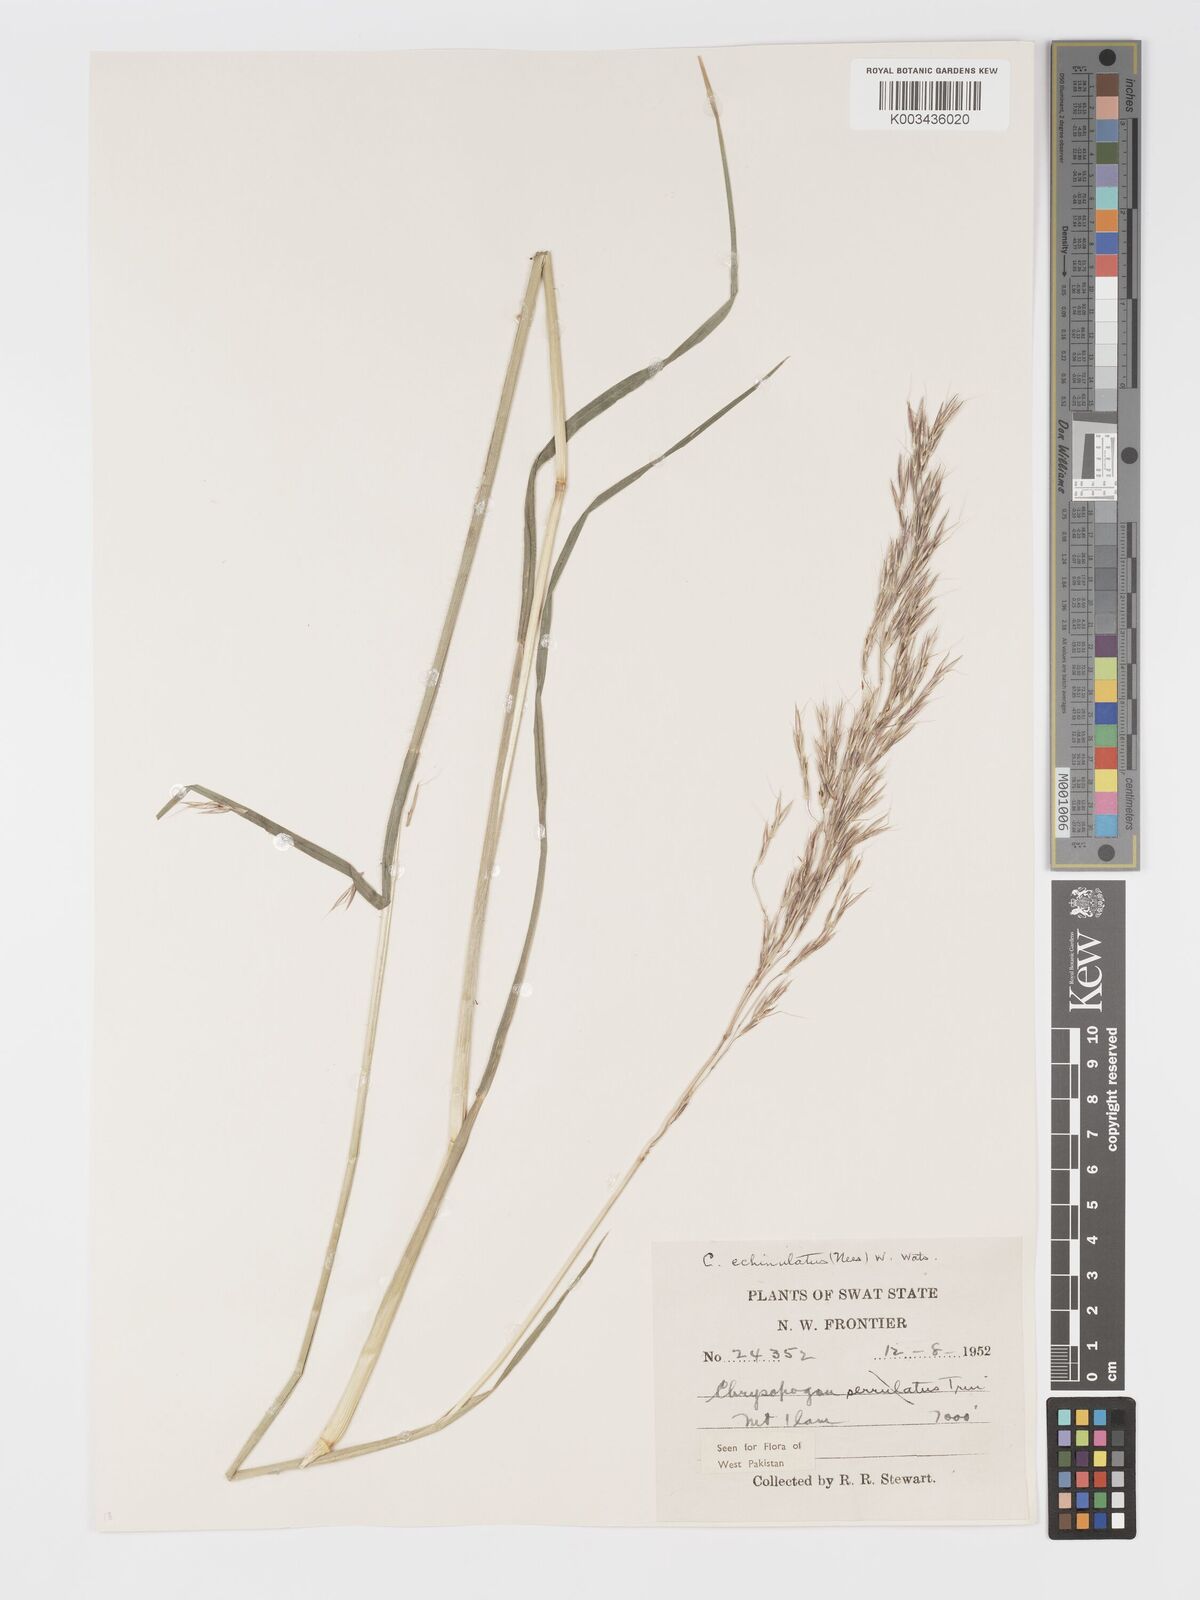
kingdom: Plantae
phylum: Tracheophyta
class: Liliopsida
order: Poales
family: Poaceae
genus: Chrysopogon
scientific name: Chrysopogon gryllus
